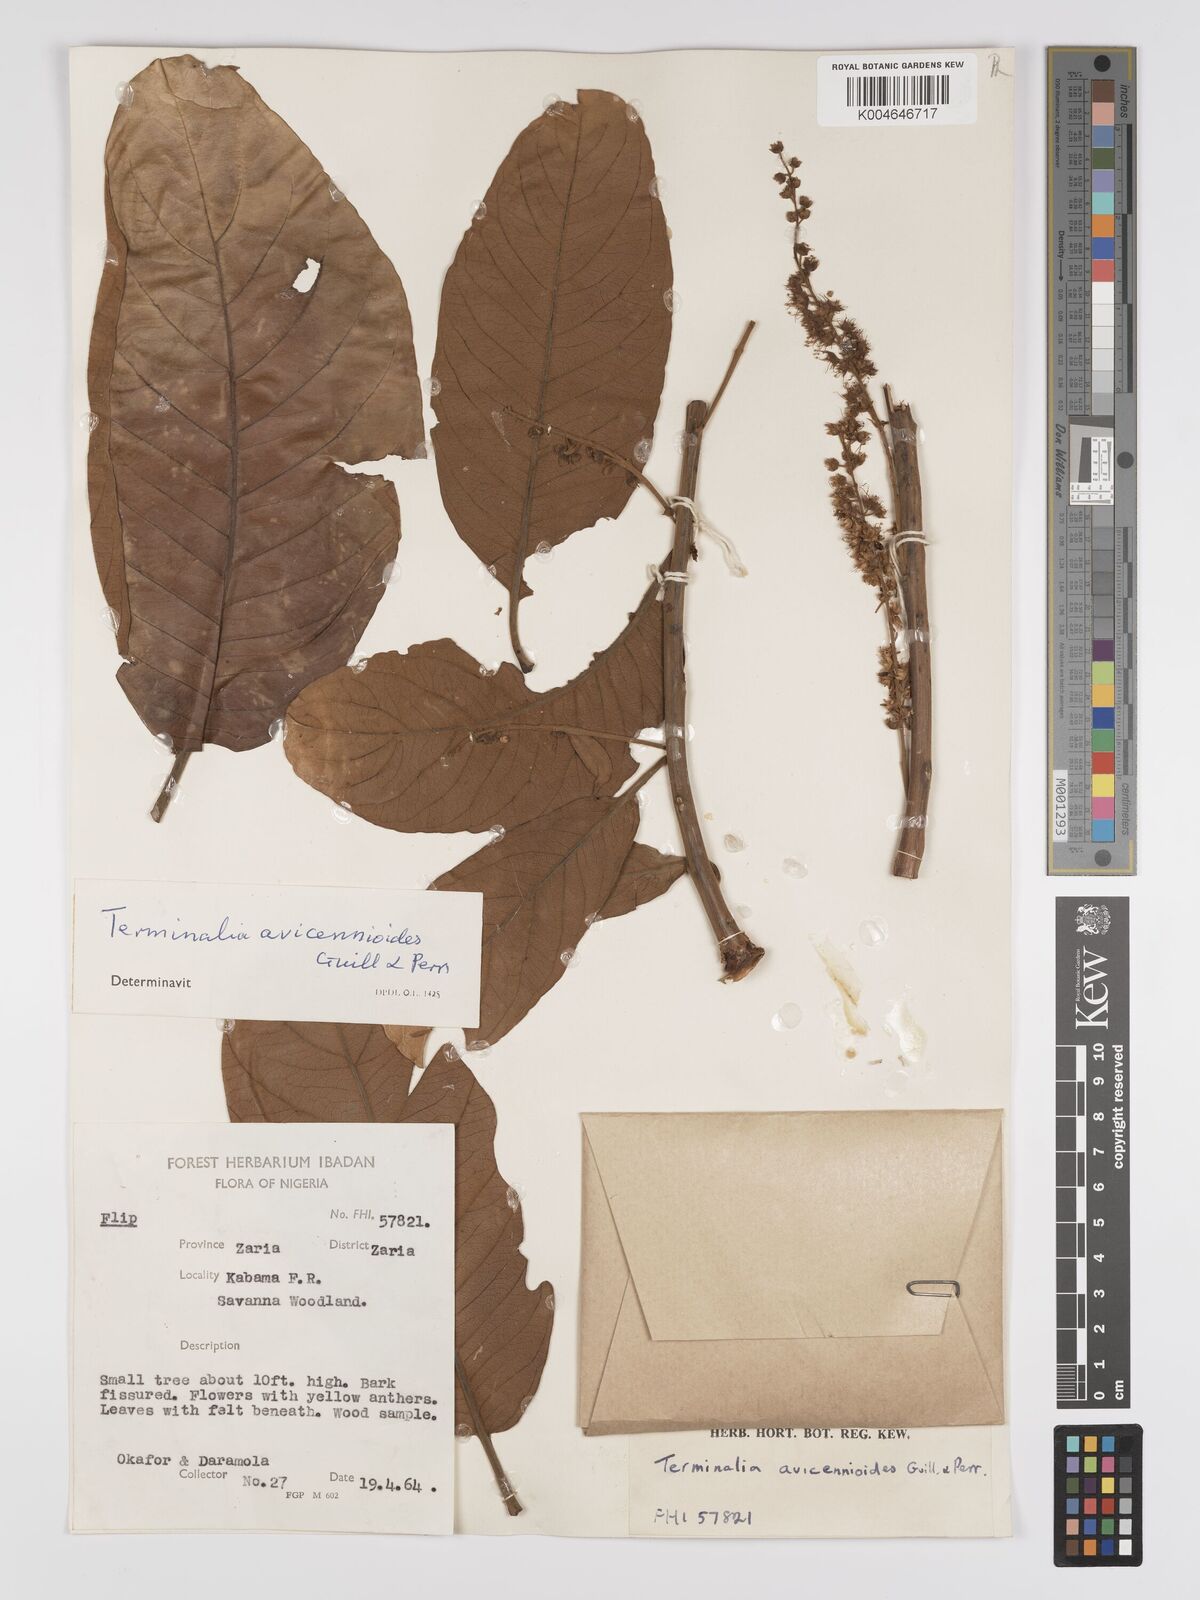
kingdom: Plantae
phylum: Tracheophyta
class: Magnoliopsida
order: Myrtales
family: Combretaceae
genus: Terminalia
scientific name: Terminalia avicennioides
